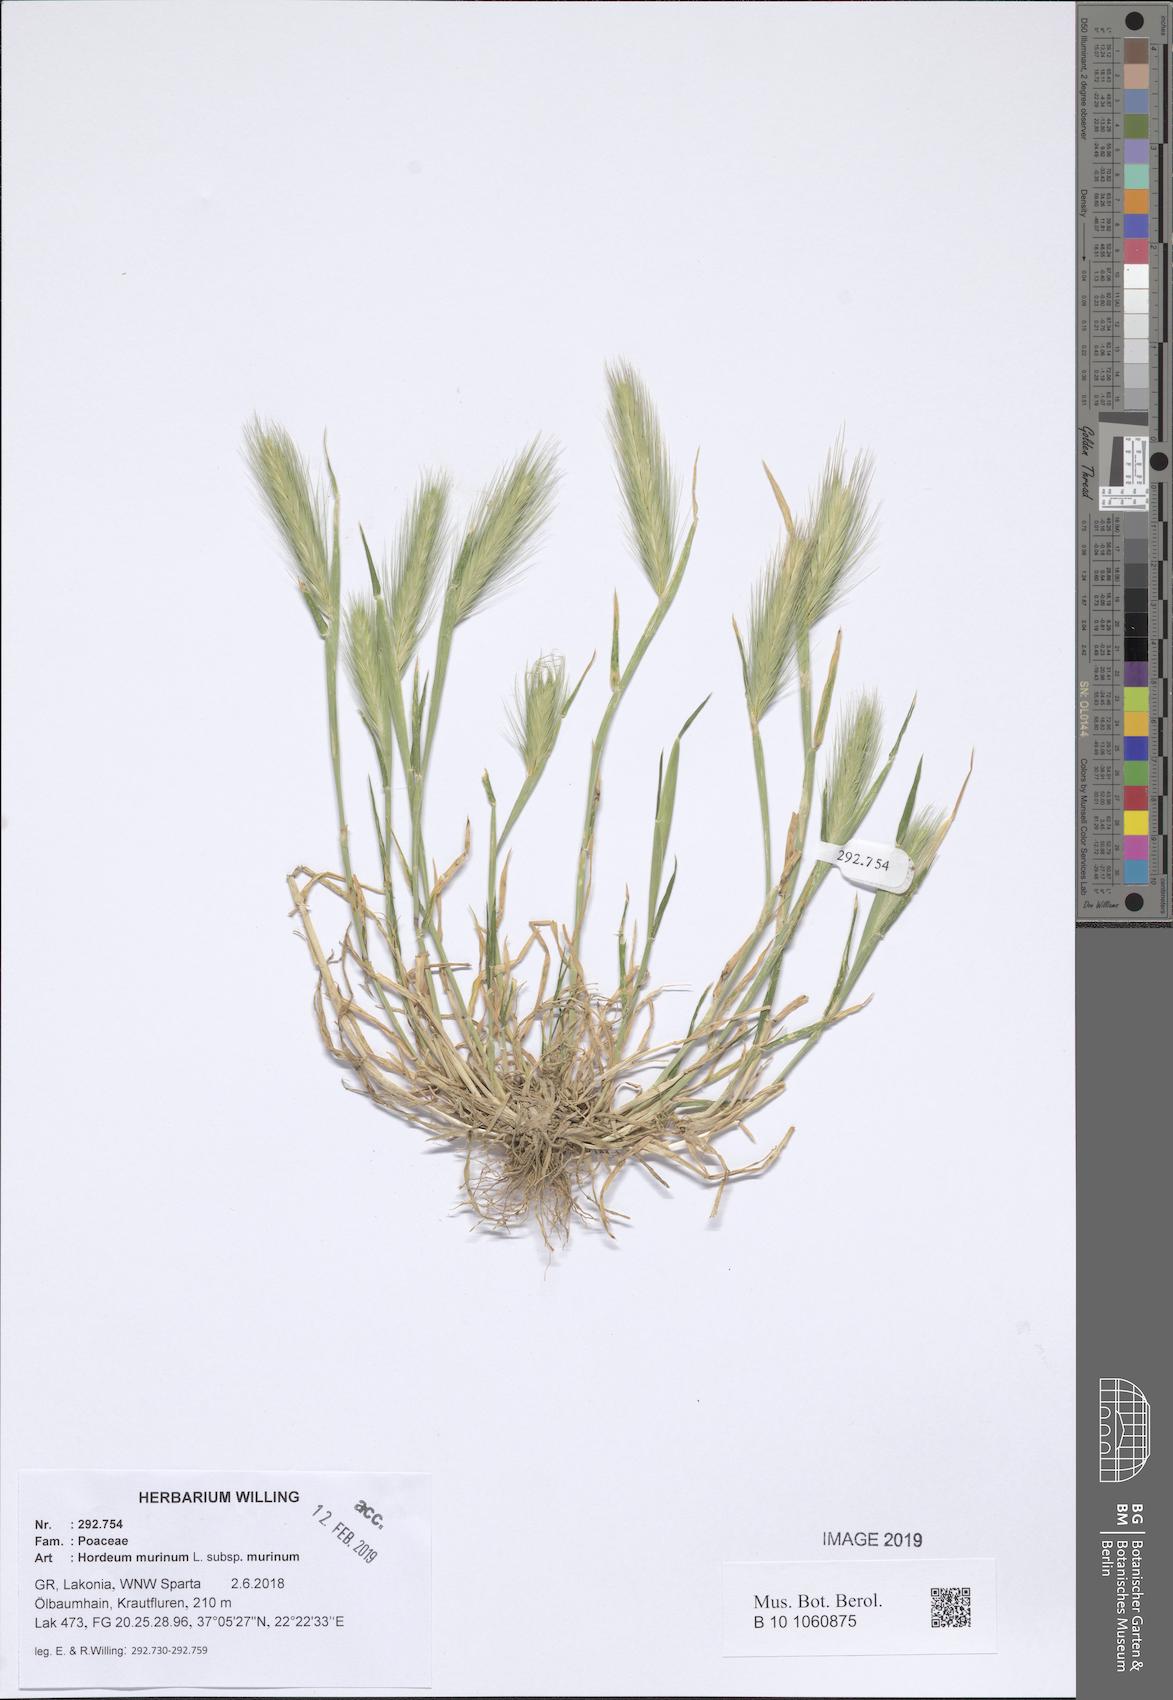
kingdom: Plantae
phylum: Tracheophyta
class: Liliopsida
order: Poales
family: Poaceae
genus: Hordeum
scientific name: Hordeum murinum
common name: Wall barley
